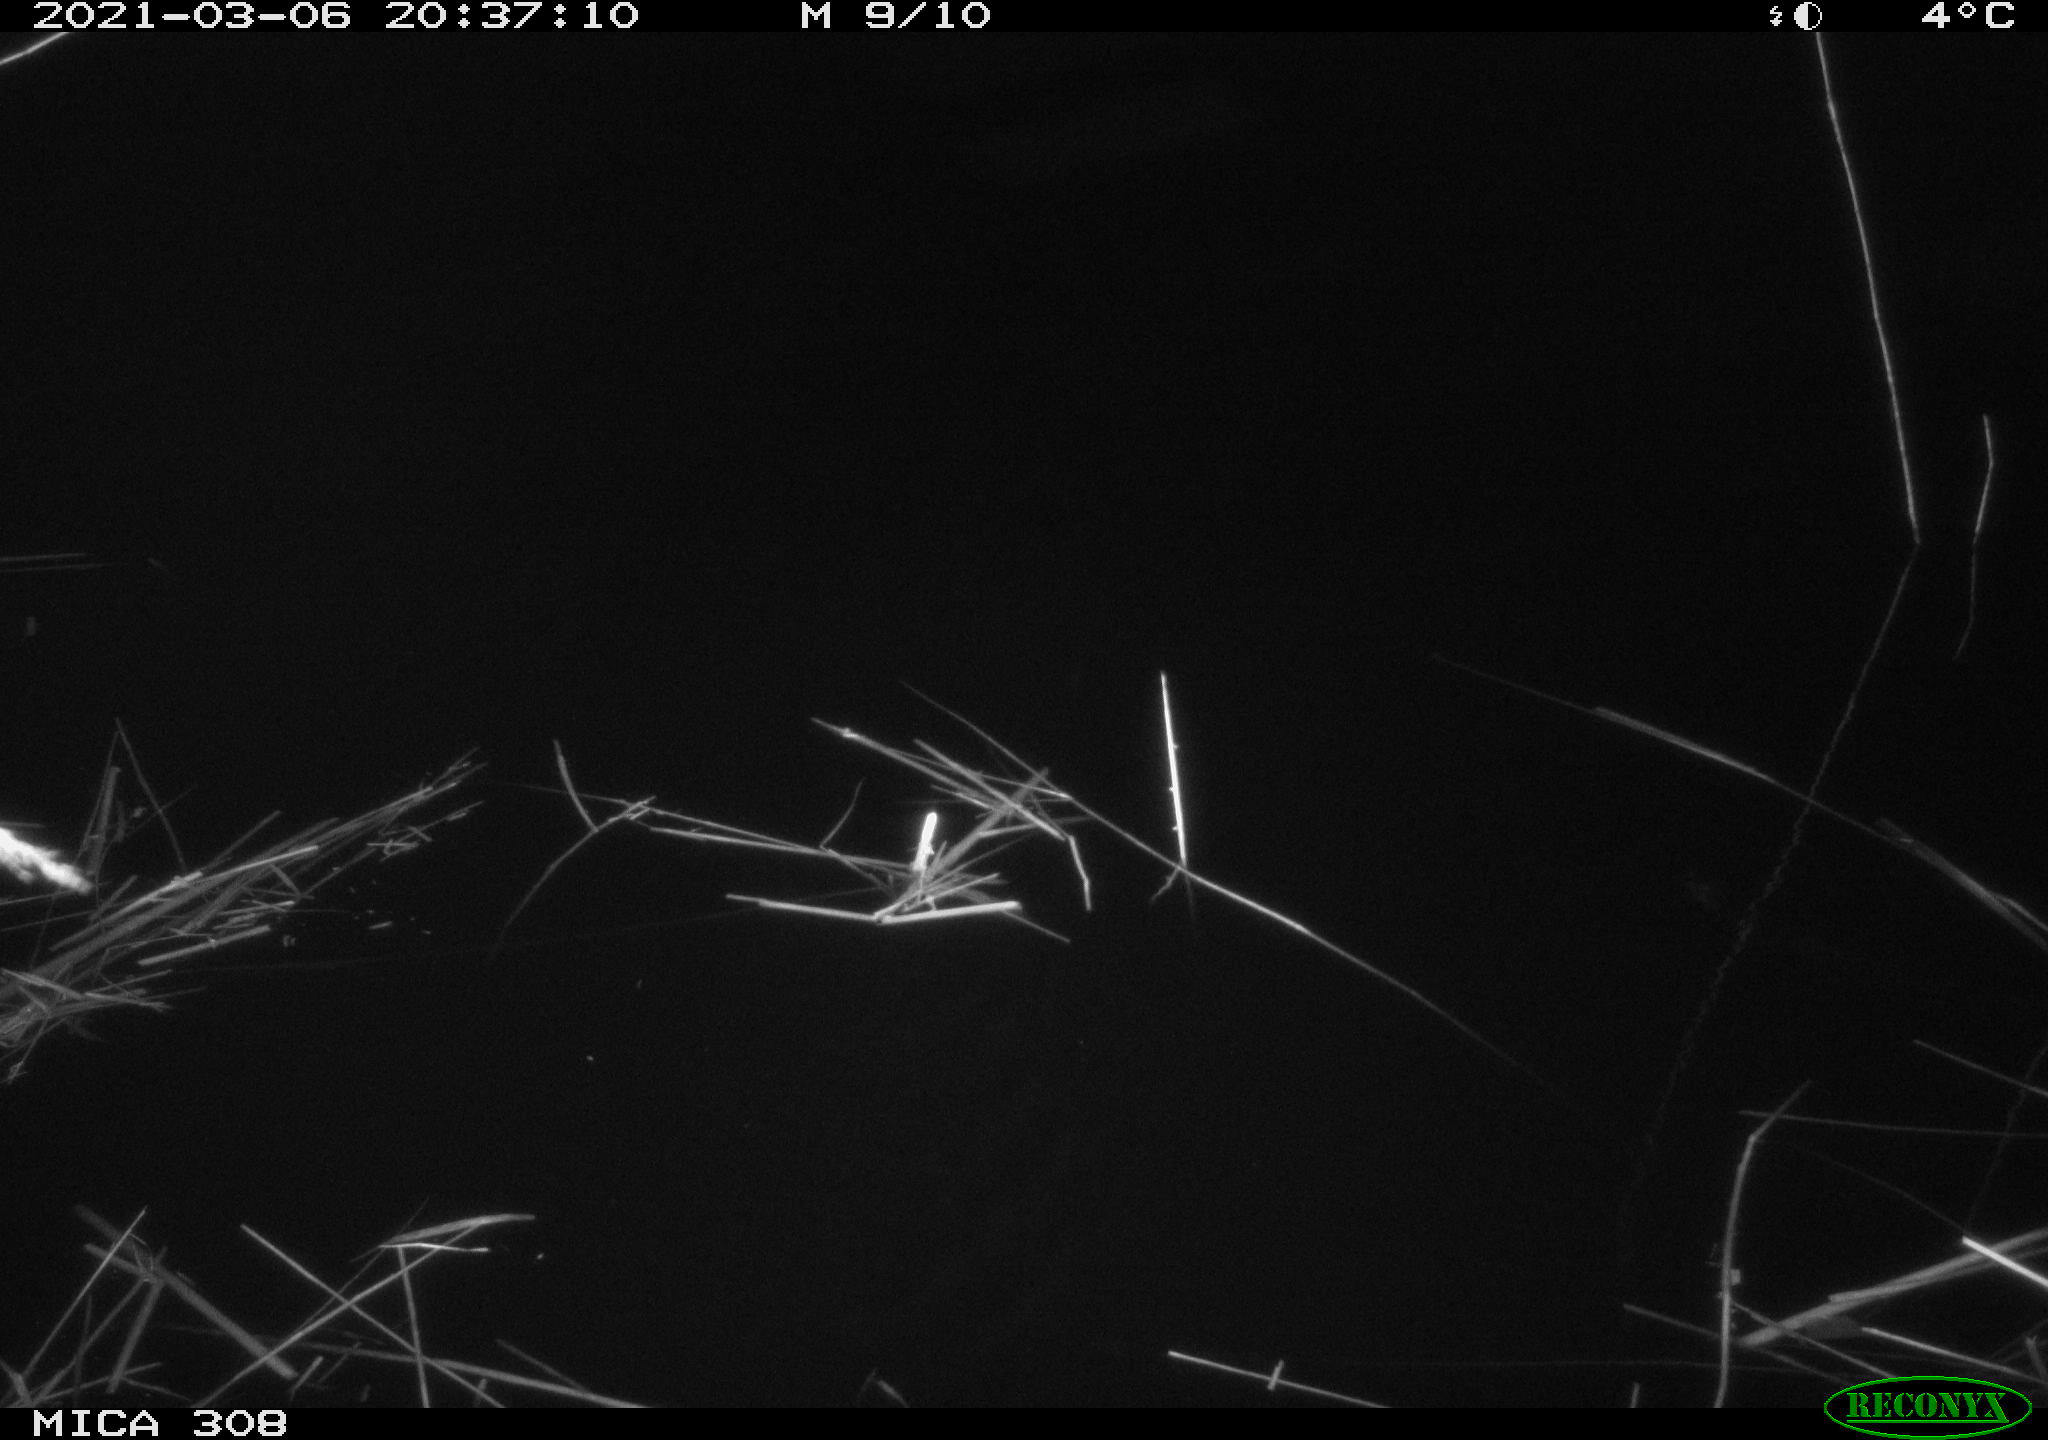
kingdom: Animalia
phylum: Chordata
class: Mammalia
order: Rodentia
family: Cricetidae
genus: Ondatra
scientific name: Ondatra zibethicus
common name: Muskrat
